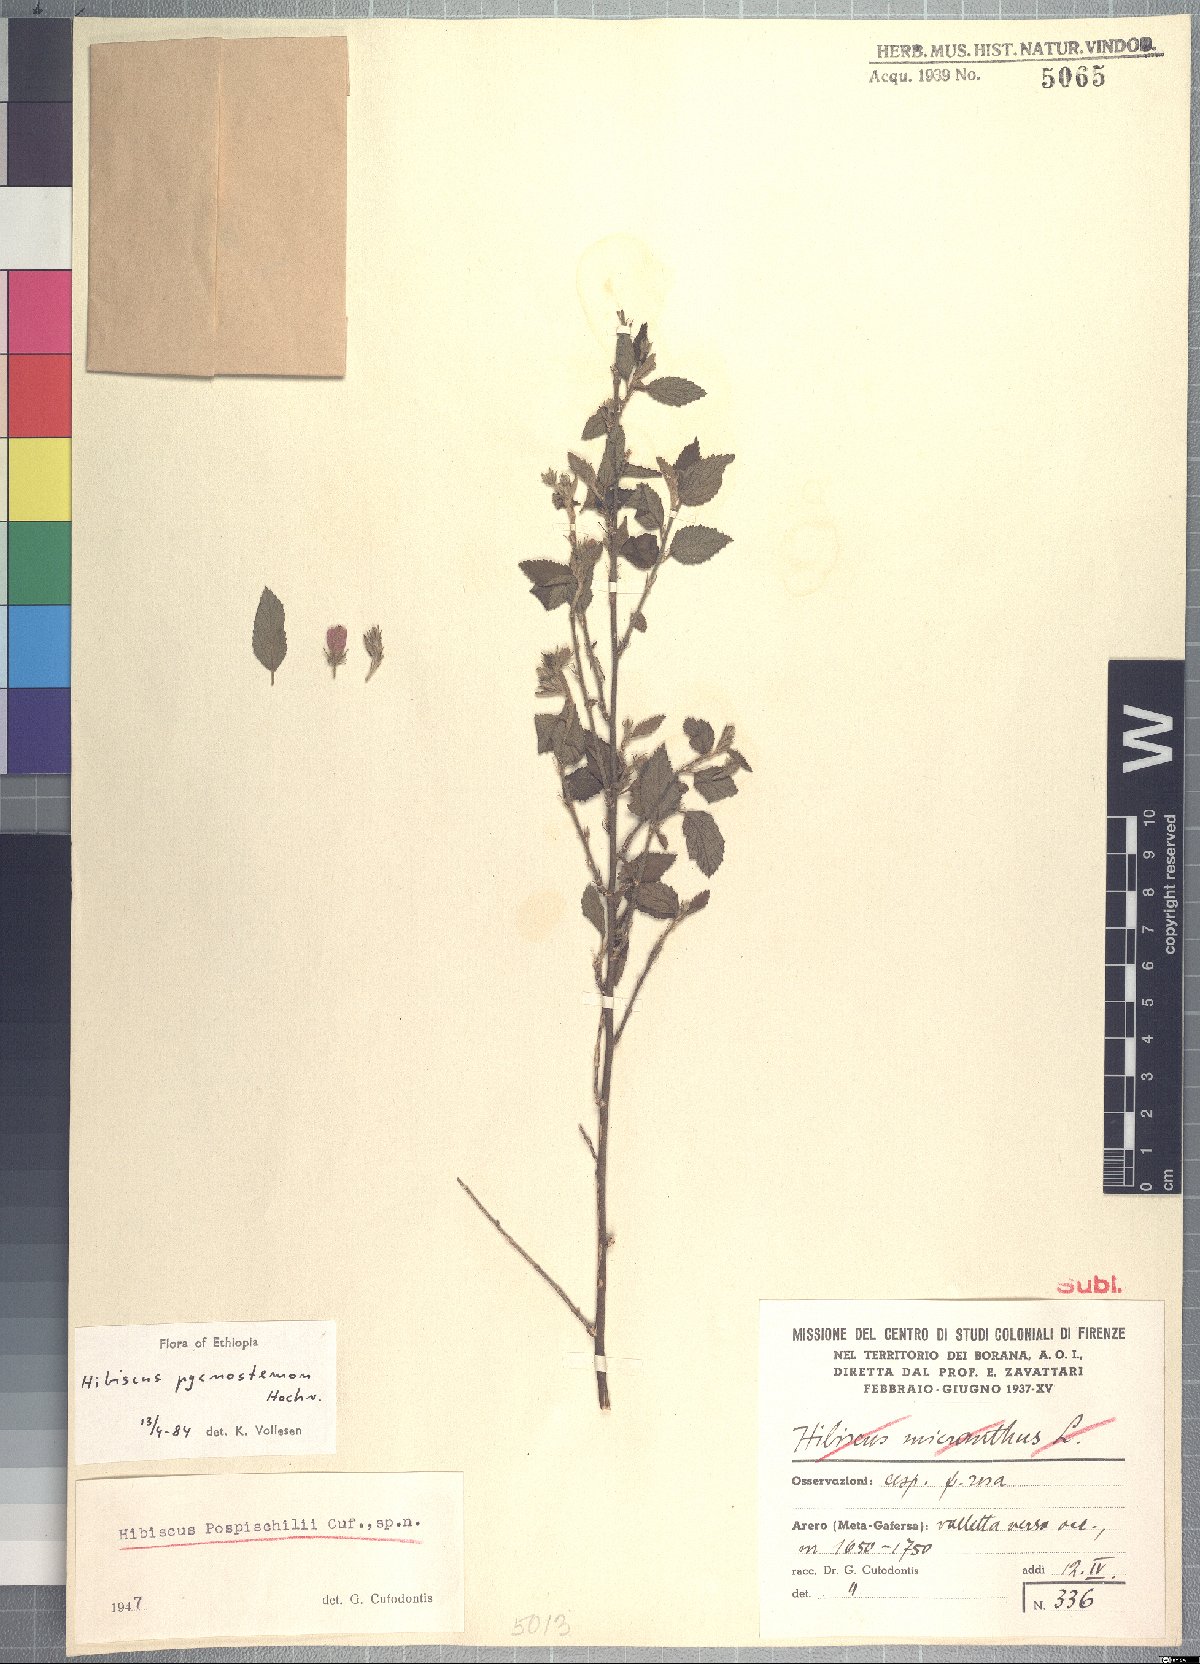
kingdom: Plantae
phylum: Tracheophyta
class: Magnoliopsida
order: Malvales
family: Malvaceae
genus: Hibiscus
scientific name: Hibiscus pycnostemon
